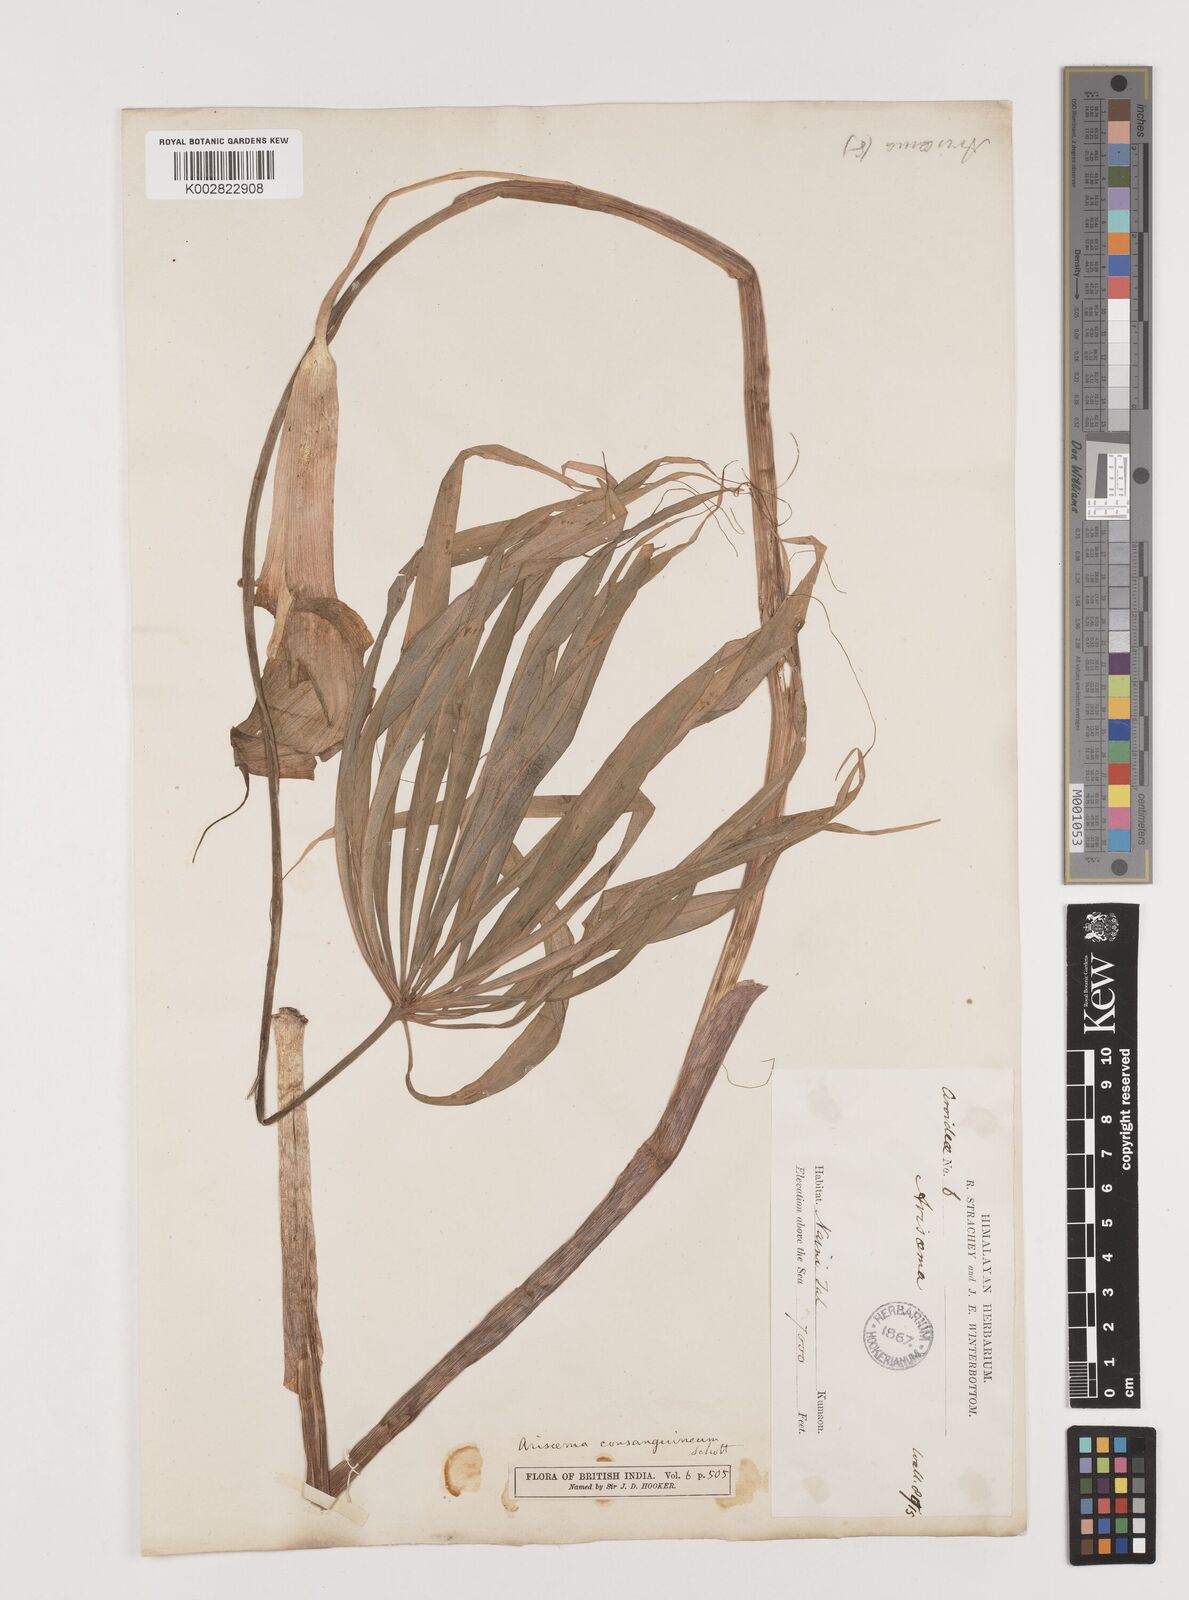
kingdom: Plantae
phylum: Tracheophyta
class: Liliopsida
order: Alismatales
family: Araceae
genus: Arisaema
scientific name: Arisaema erubescens
